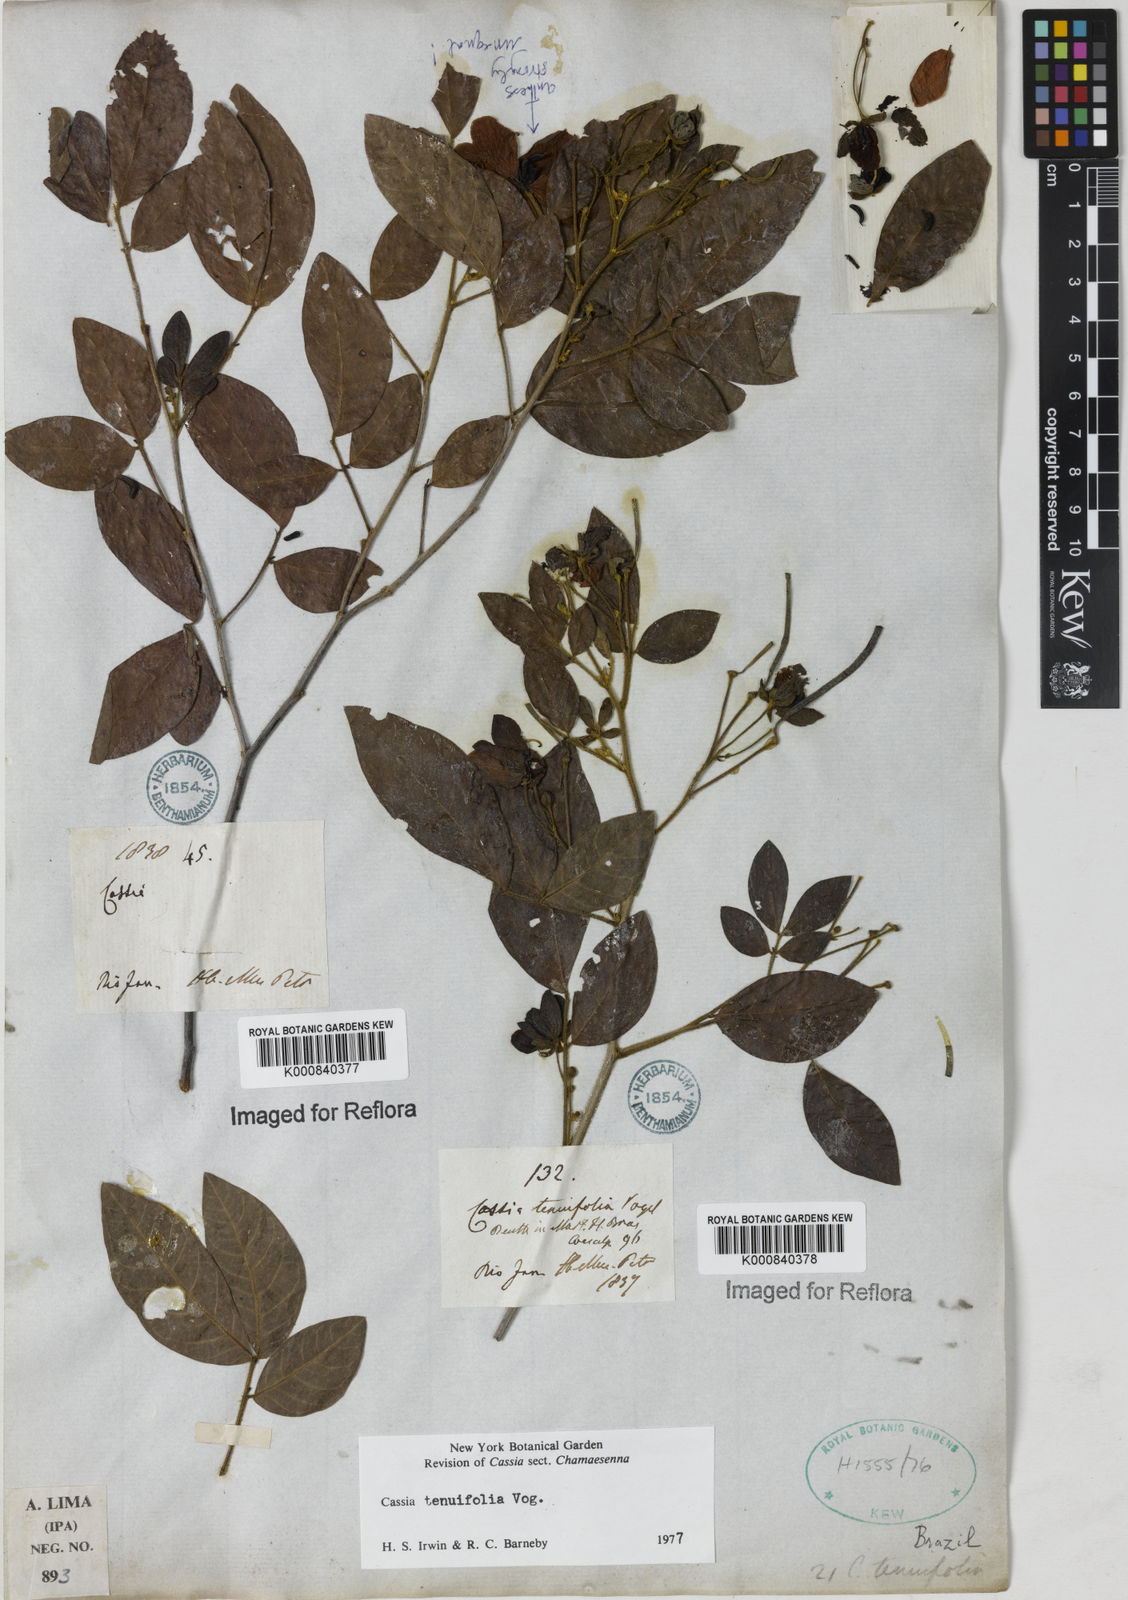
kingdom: Plantae
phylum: Tracheophyta
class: Magnoliopsida
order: Fabales
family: Fabaceae
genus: Senna
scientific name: Senna tenuifolia
